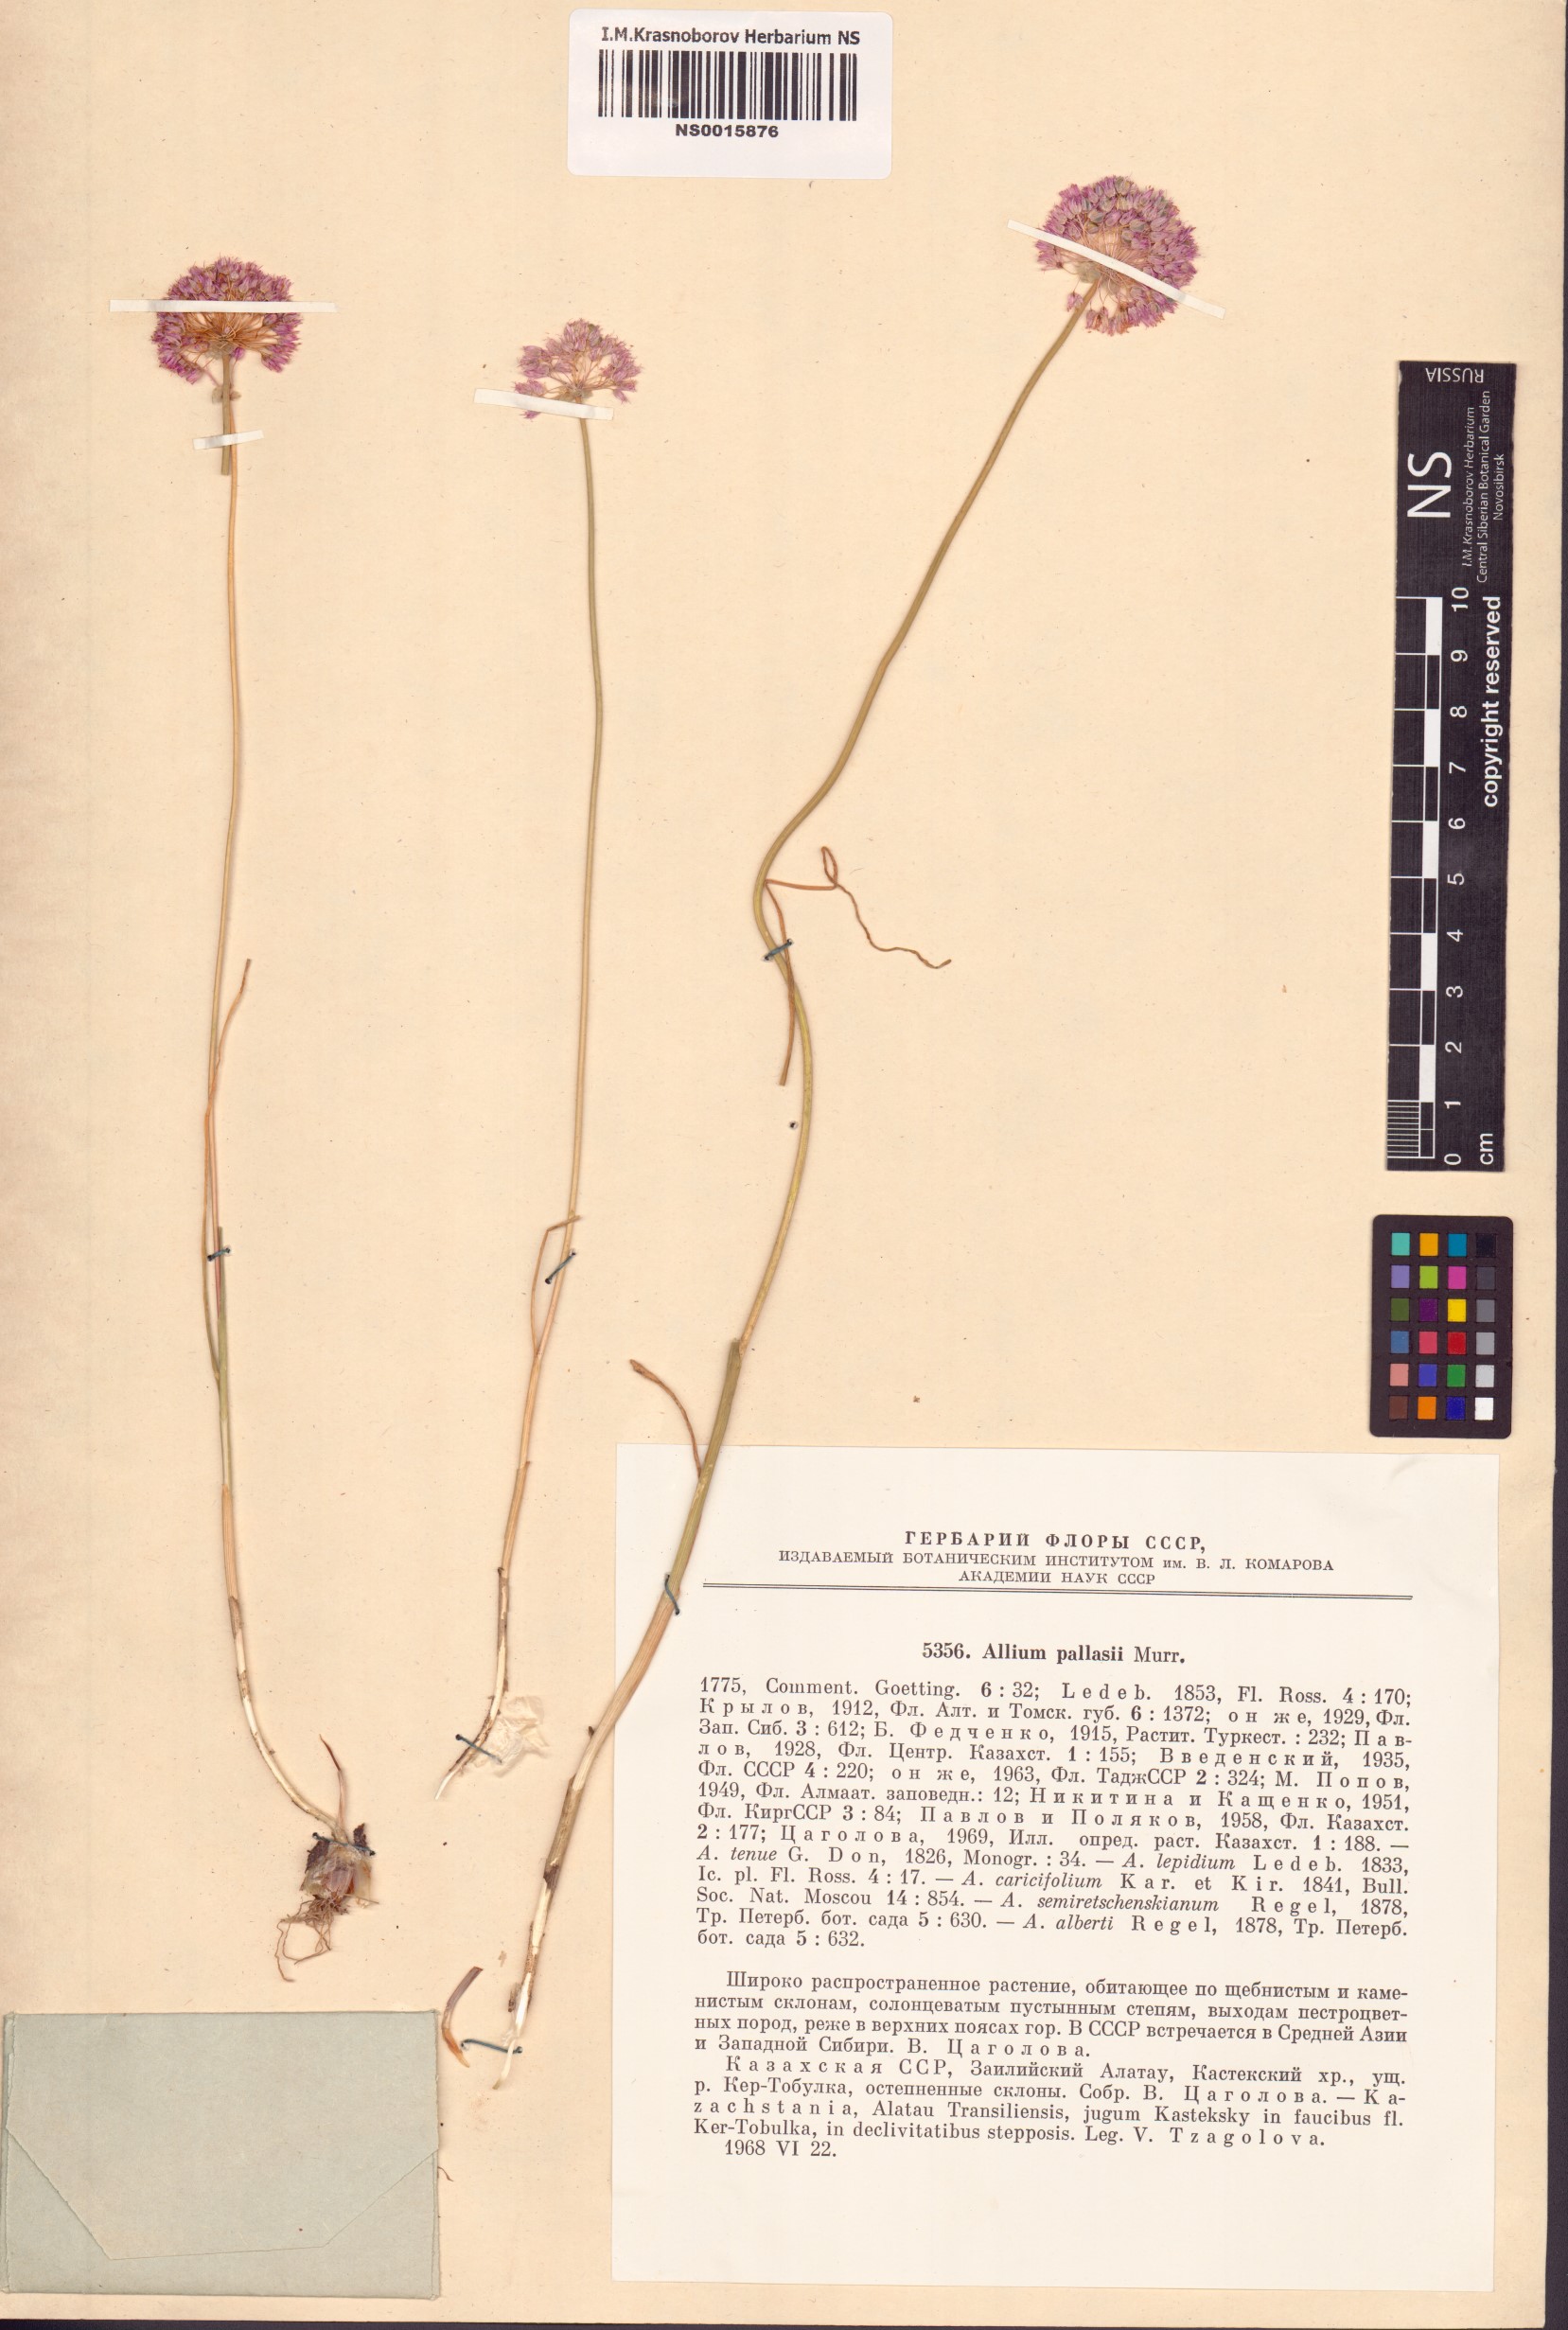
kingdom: Plantae
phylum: Tracheophyta
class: Liliopsida
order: Asparagales
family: Amaryllidaceae
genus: Allium
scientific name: Allium pallasii
